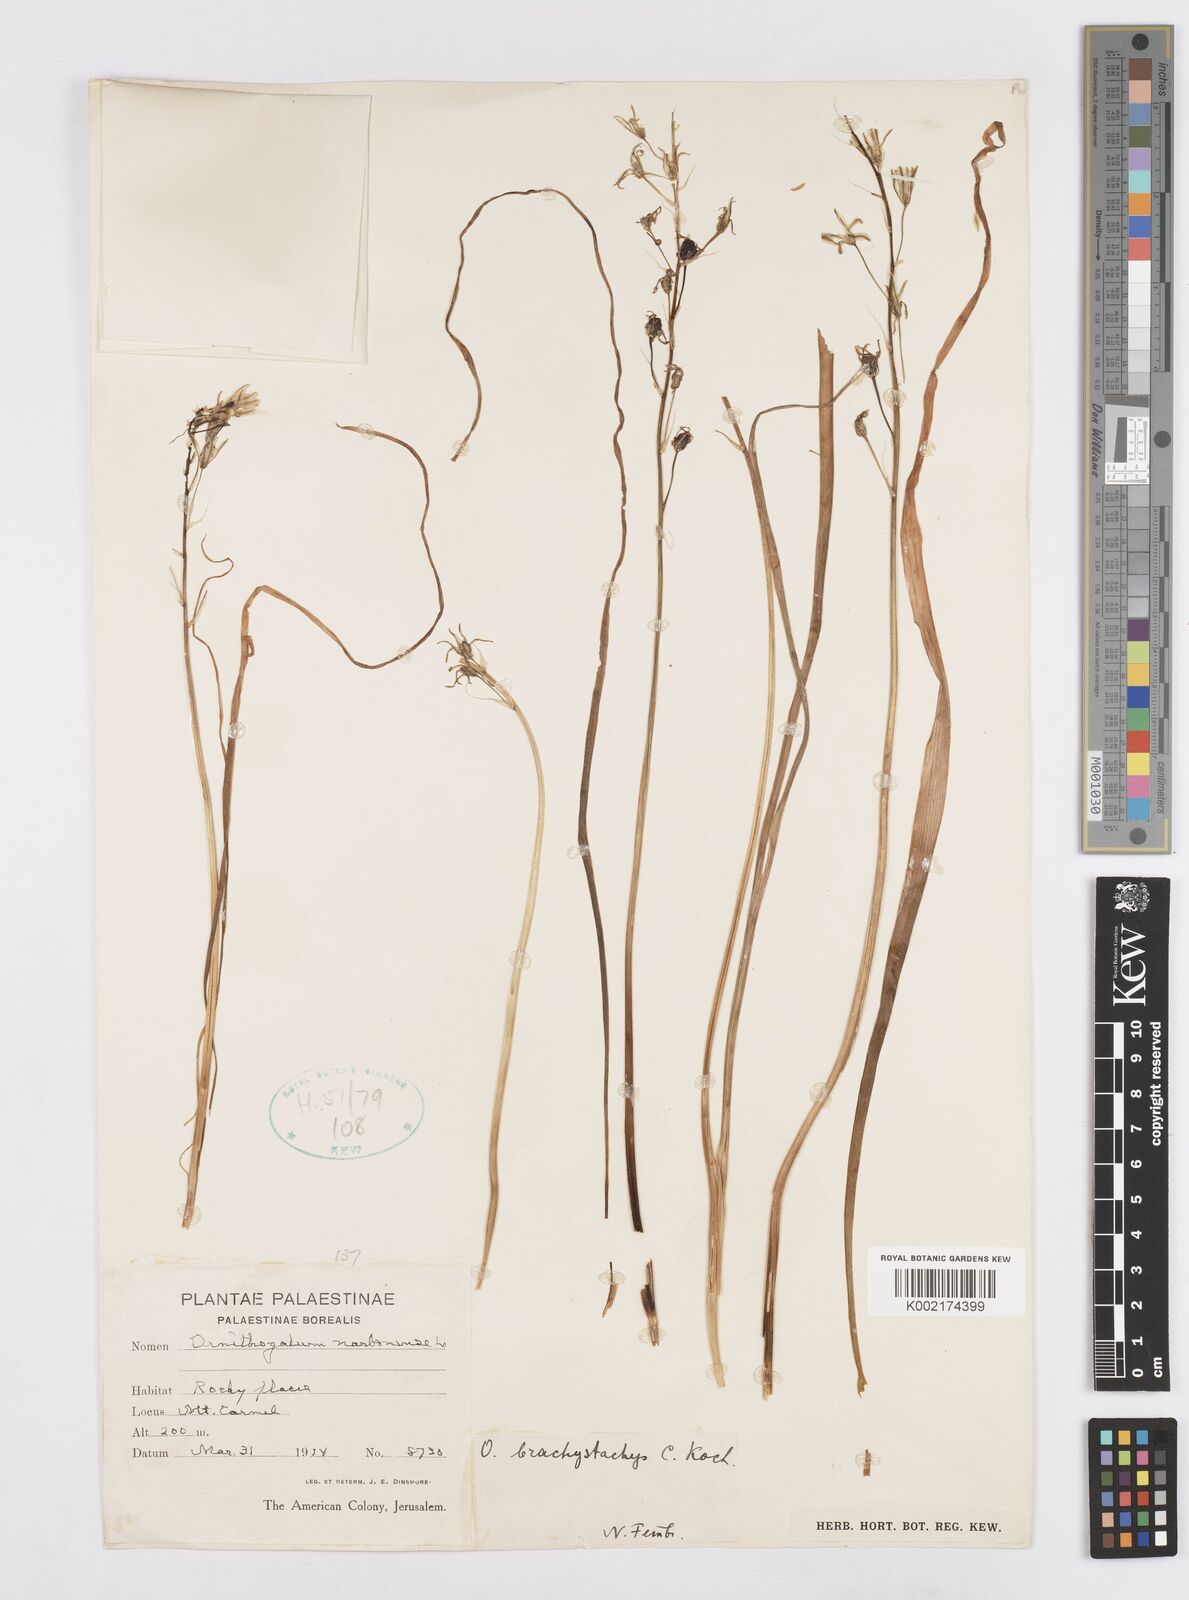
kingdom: Plantae
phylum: Tracheophyta
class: Liliopsida
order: Asparagales
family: Asparagaceae
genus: Ornithogalum
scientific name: Ornithogalum narbonense
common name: Bath-asparagus
